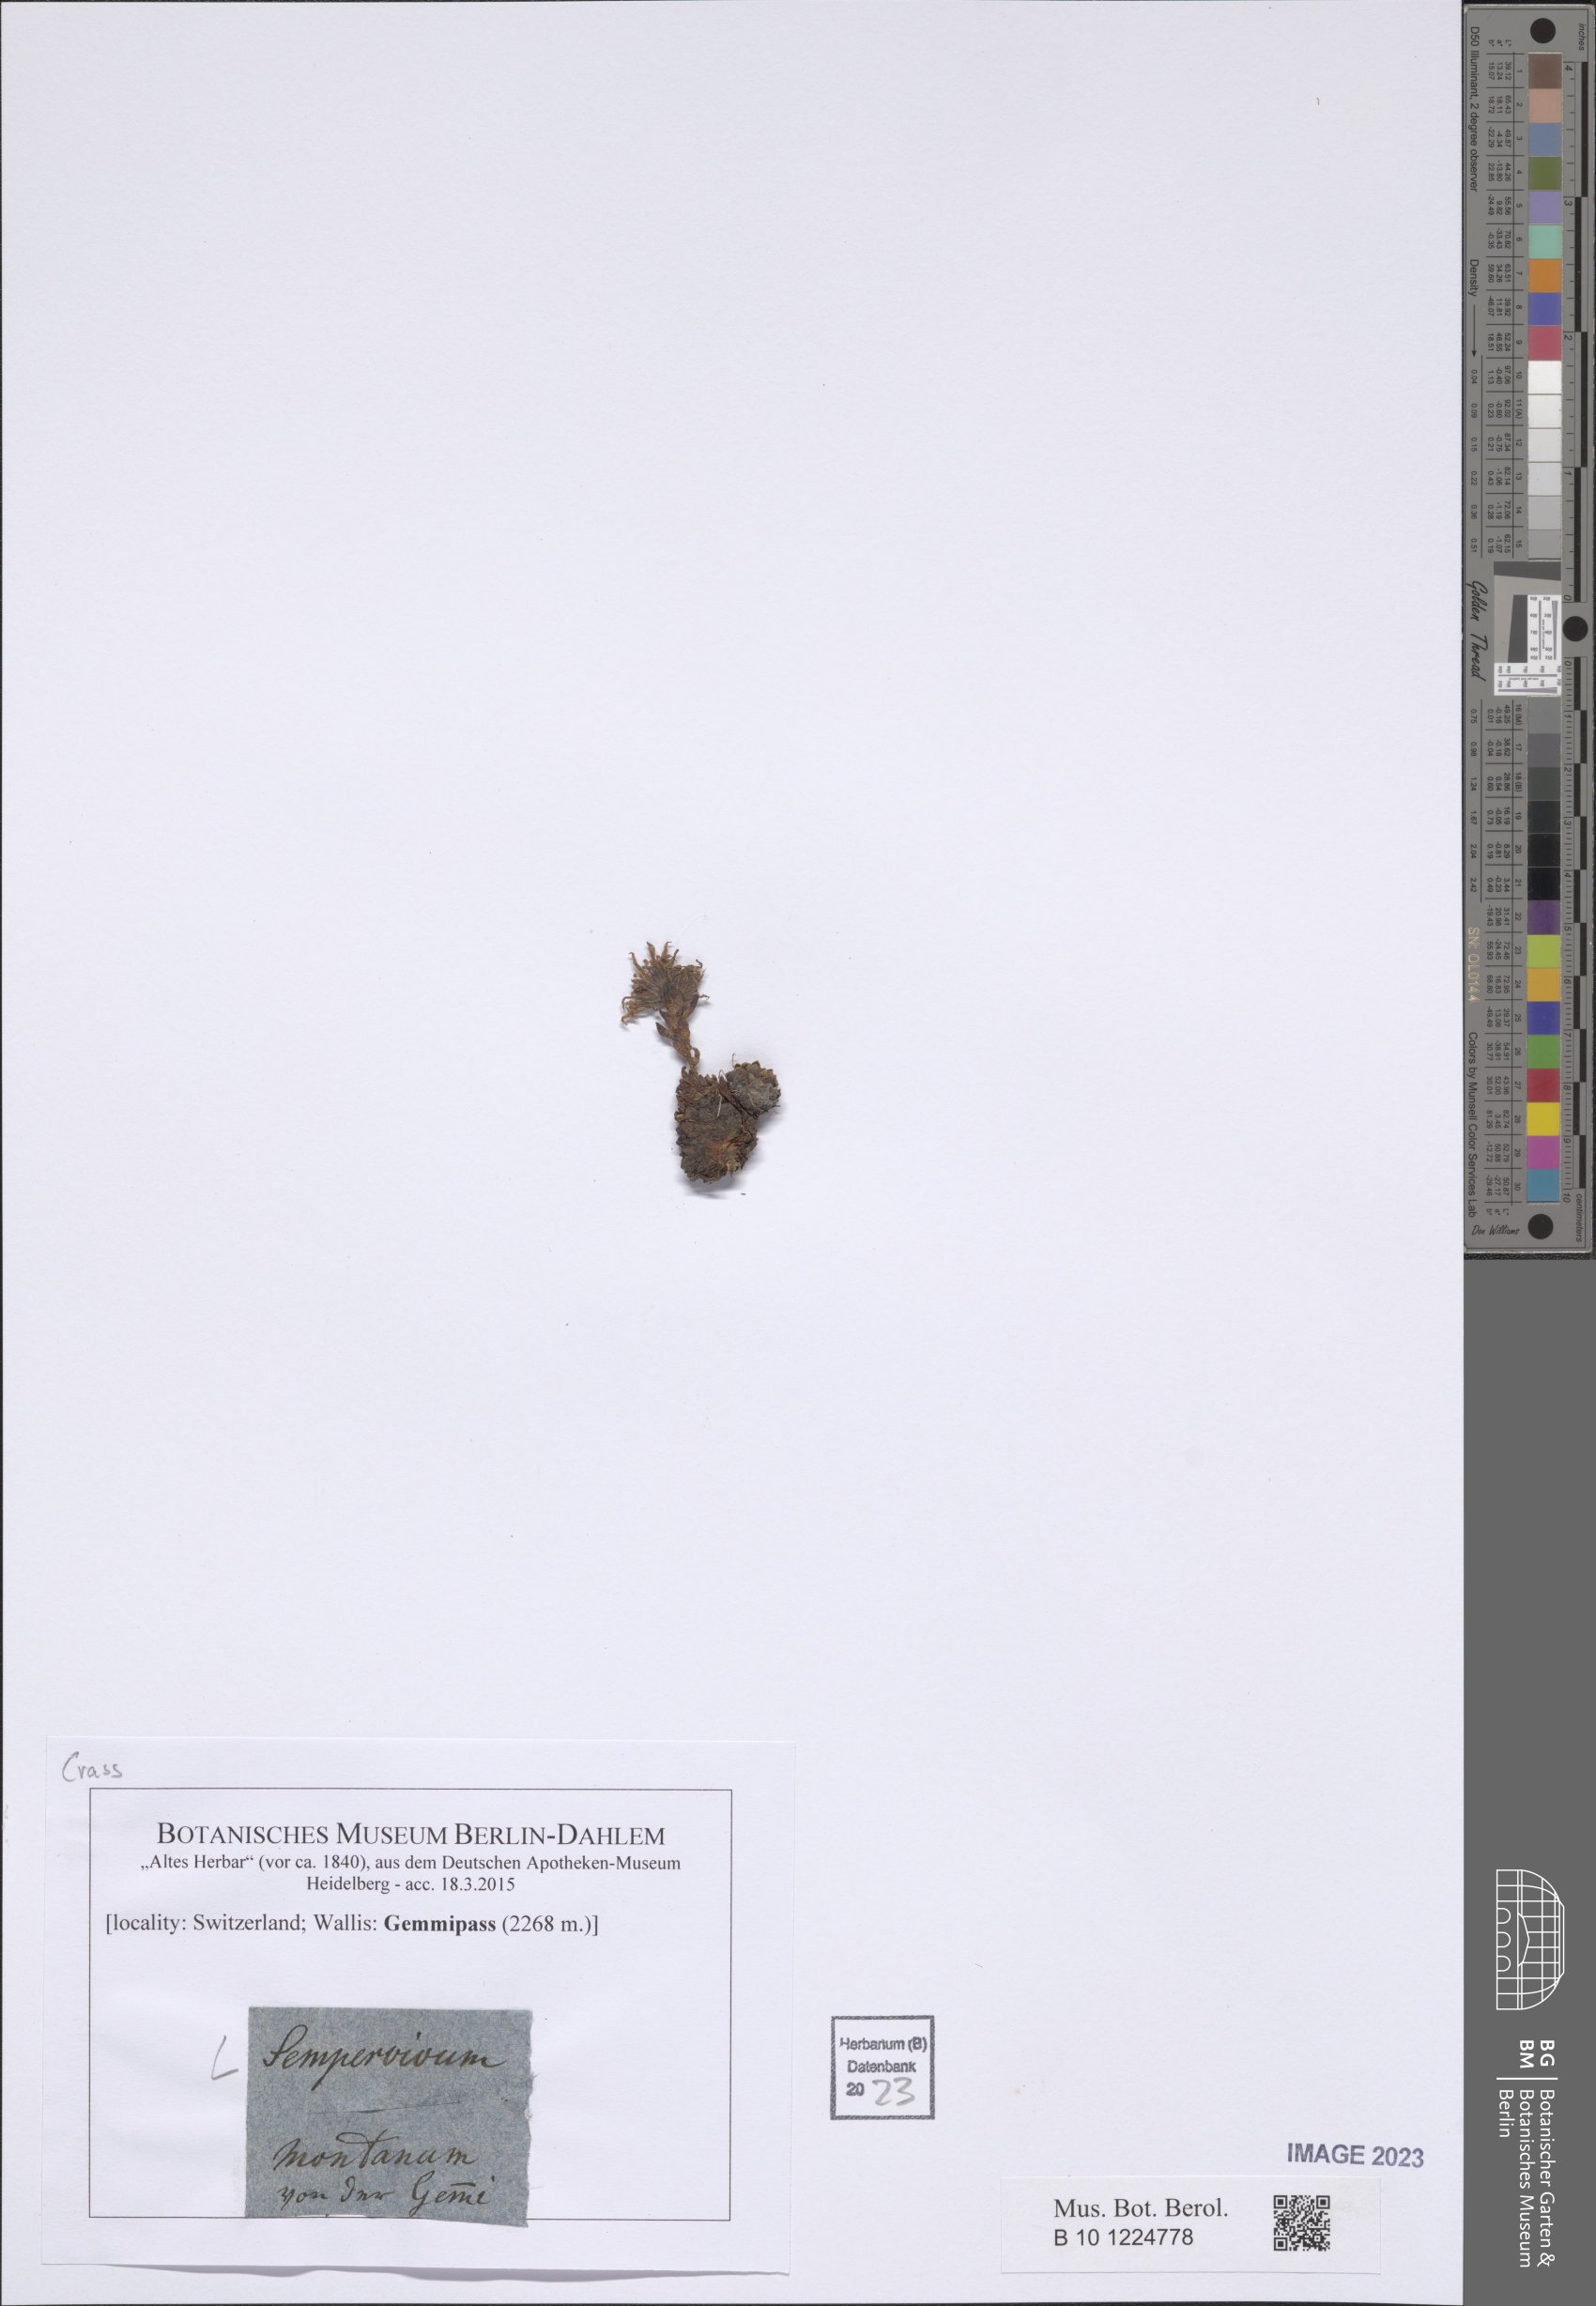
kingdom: Plantae
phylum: Tracheophyta
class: Magnoliopsida
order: Saxifragales
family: Crassulaceae
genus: Sempervivum
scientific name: Sempervivum
